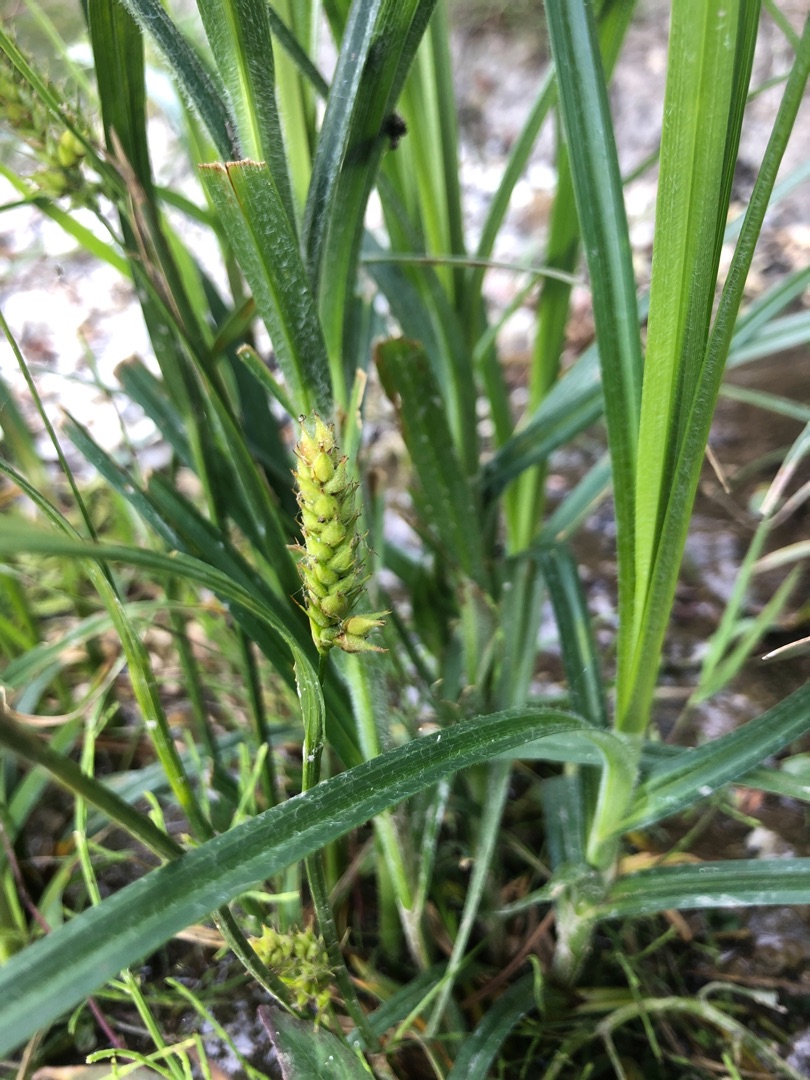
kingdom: Plantae
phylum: Tracheophyta
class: Liliopsida
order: Poales
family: Cyperaceae
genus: Carex
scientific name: Carex hirta
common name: Håret star
